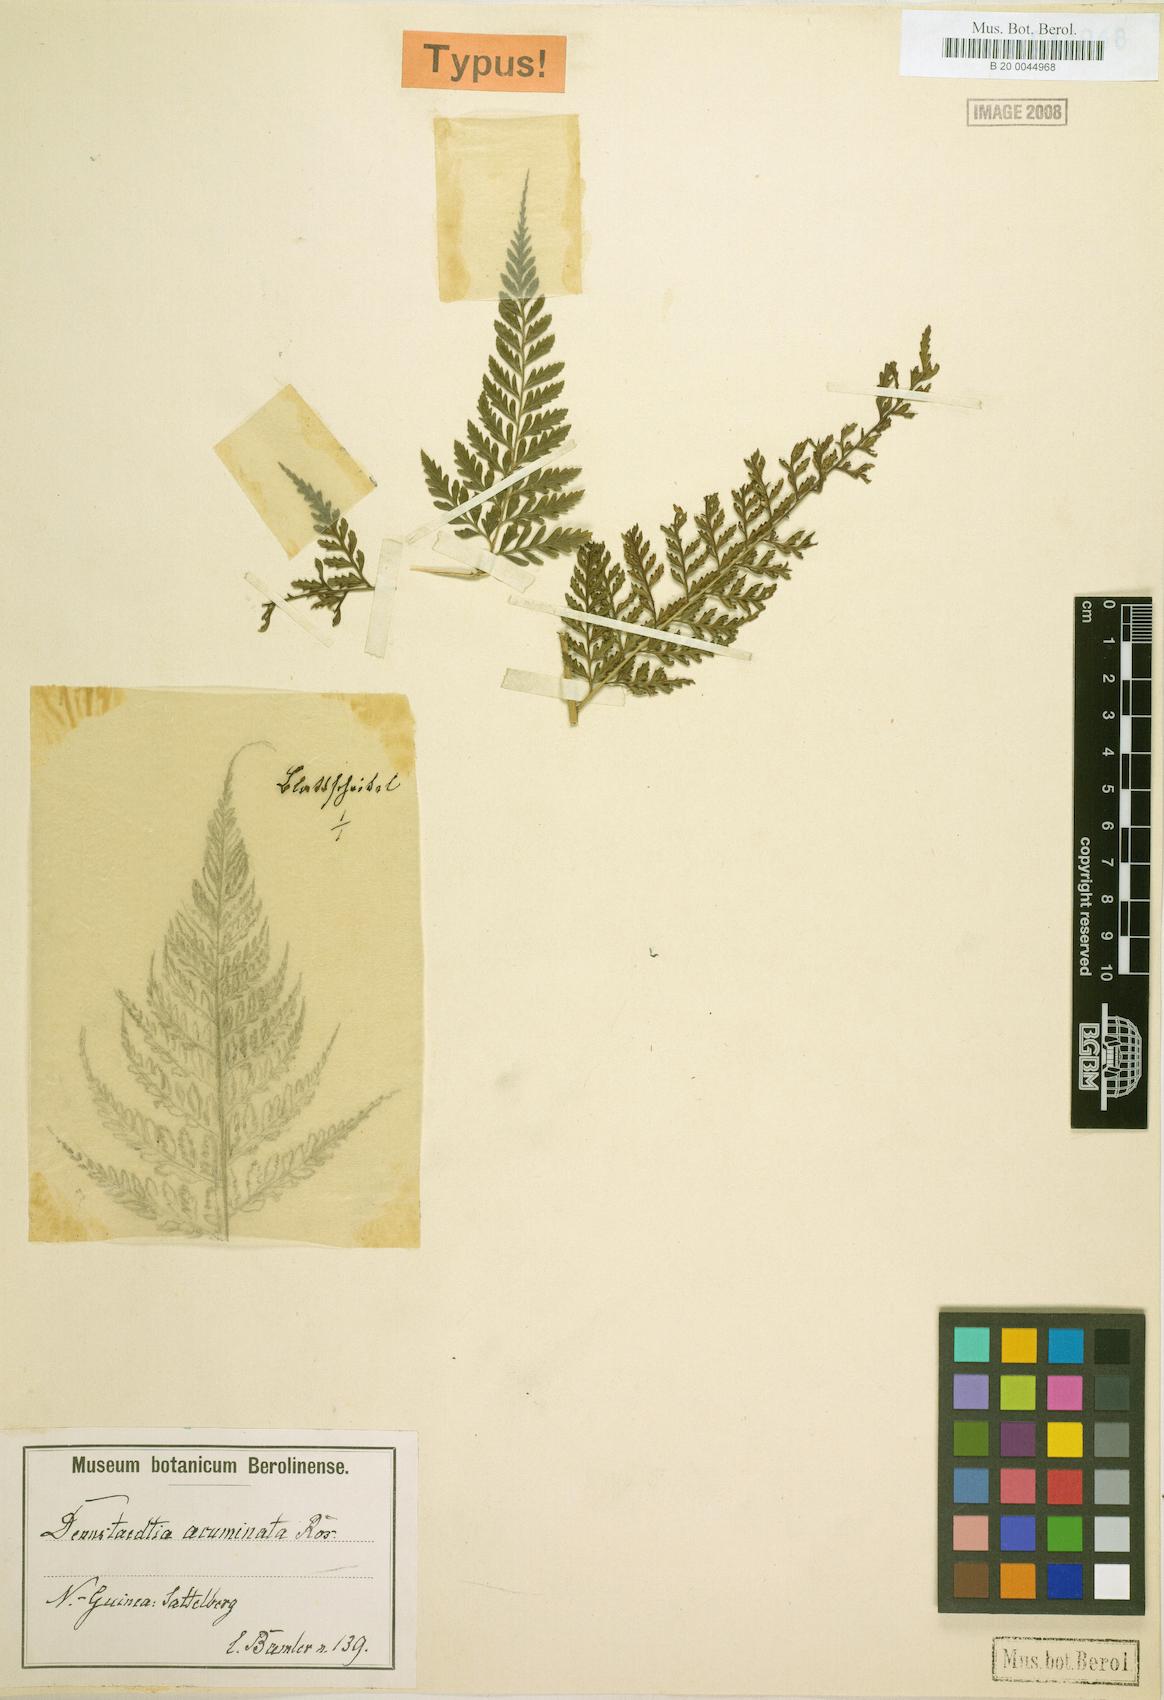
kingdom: Plantae
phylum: Tracheophyta
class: Polypodiopsida
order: Polypodiales
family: Saccolomataceae
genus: Orthiopteris
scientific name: Orthiopteris acuminata
